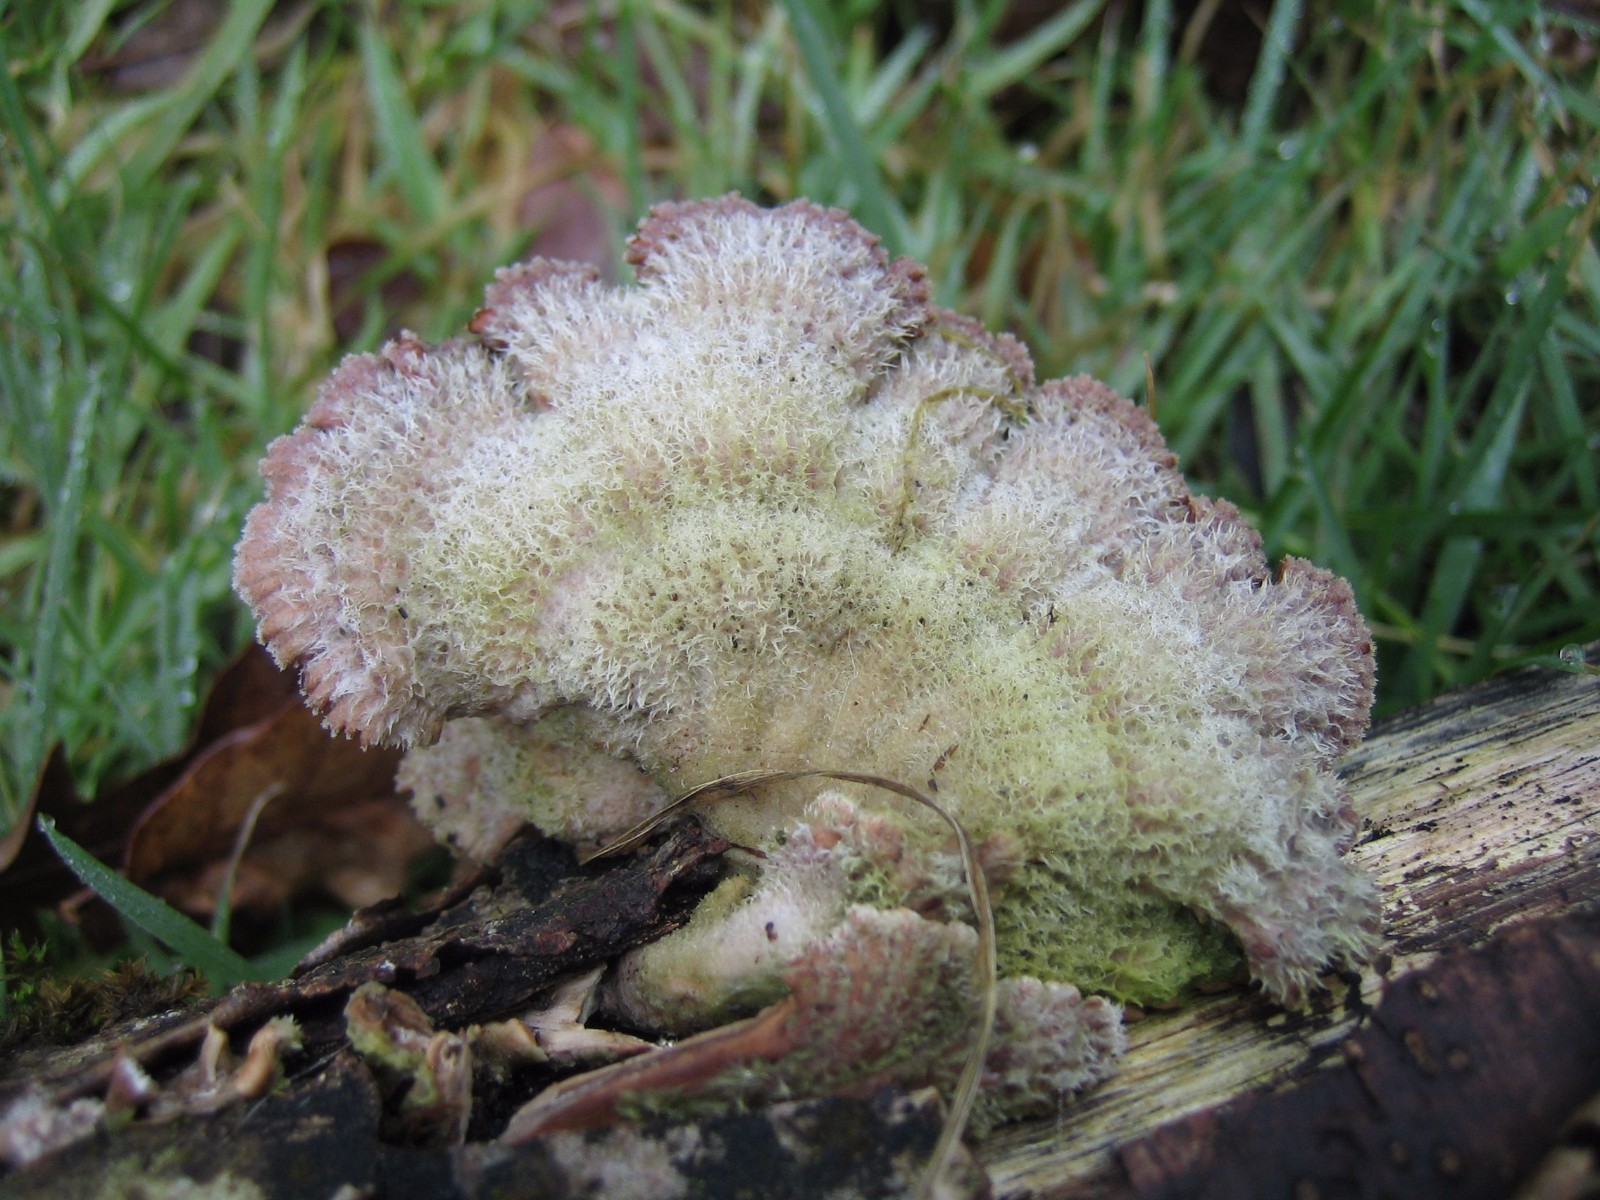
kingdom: Fungi
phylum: Basidiomycota
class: Agaricomycetes
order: Agaricales
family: Schizophyllaceae
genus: Schizophyllum
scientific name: Schizophyllum commune
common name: kløvblad
